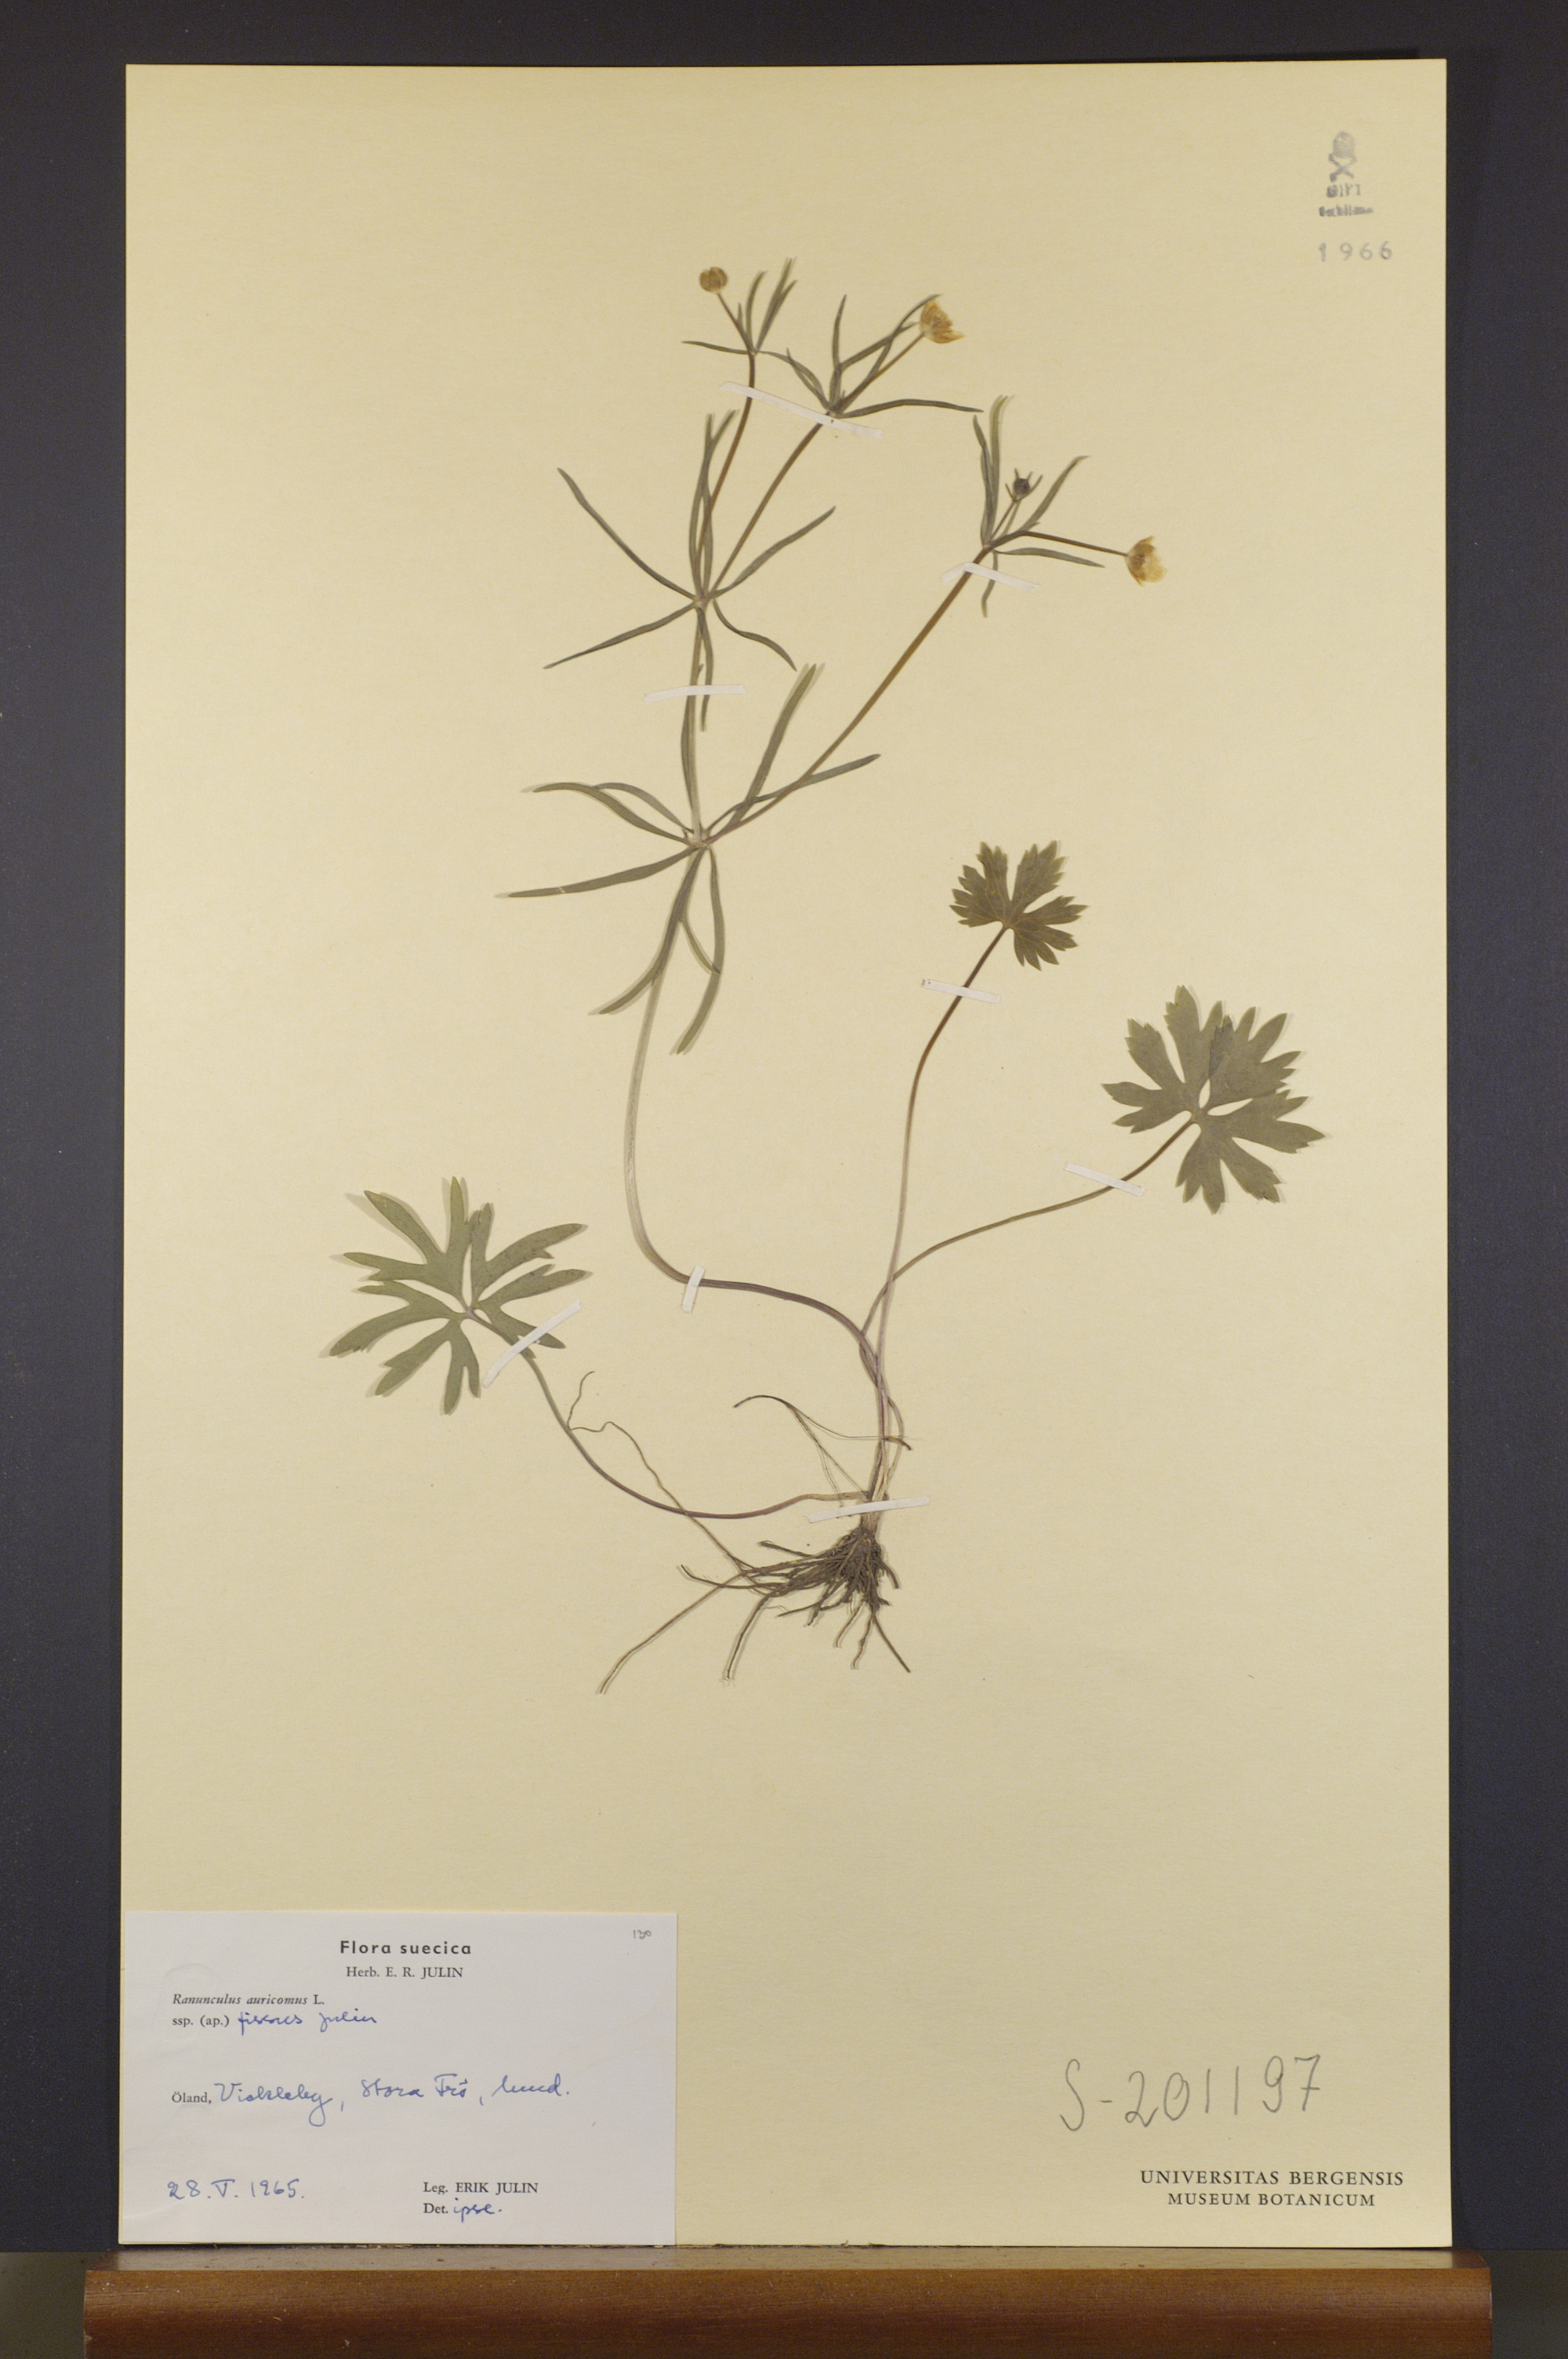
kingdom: Plantae
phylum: Tracheophyta
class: Magnoliopsida
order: Ranunculales
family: Ranunculaceae
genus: Ranunculus
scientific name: Ranunculus julinii
